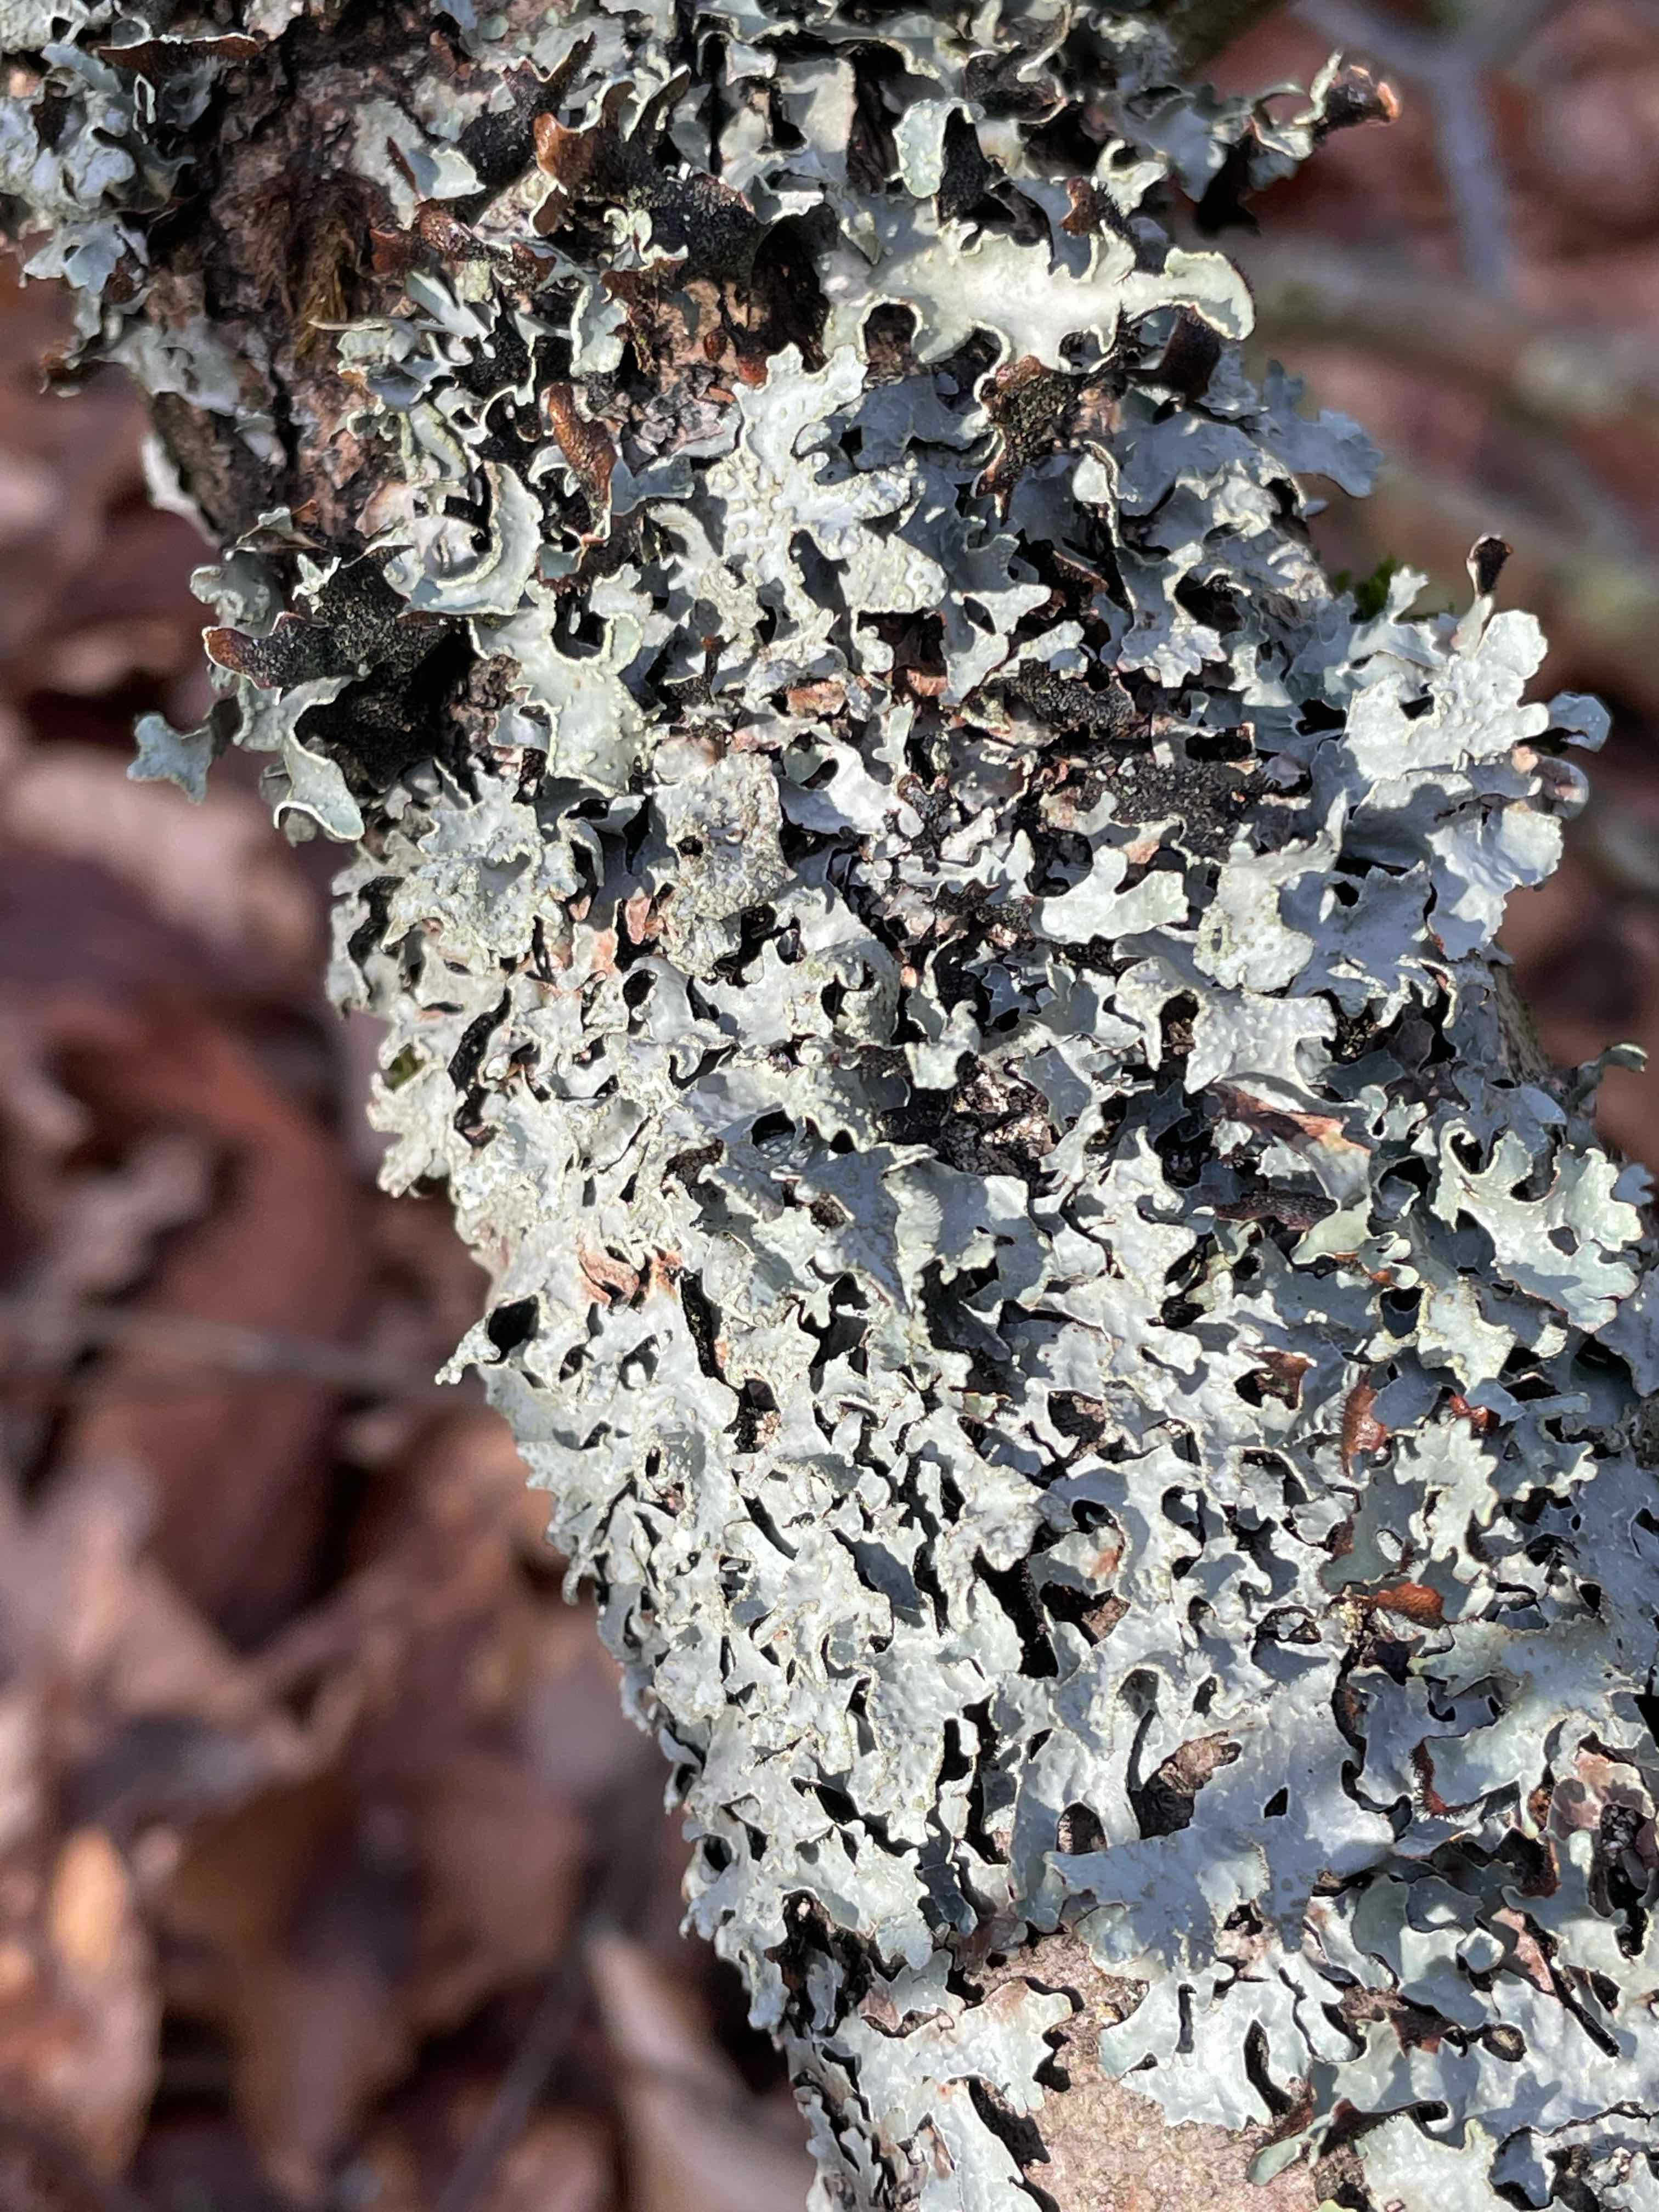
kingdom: Fungi
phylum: Ascomycota
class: Lecanoromycetes
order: Lecanorales
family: Parmeliaceae
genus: Parmelia
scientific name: Parmelia sulcata
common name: rynket skållav
